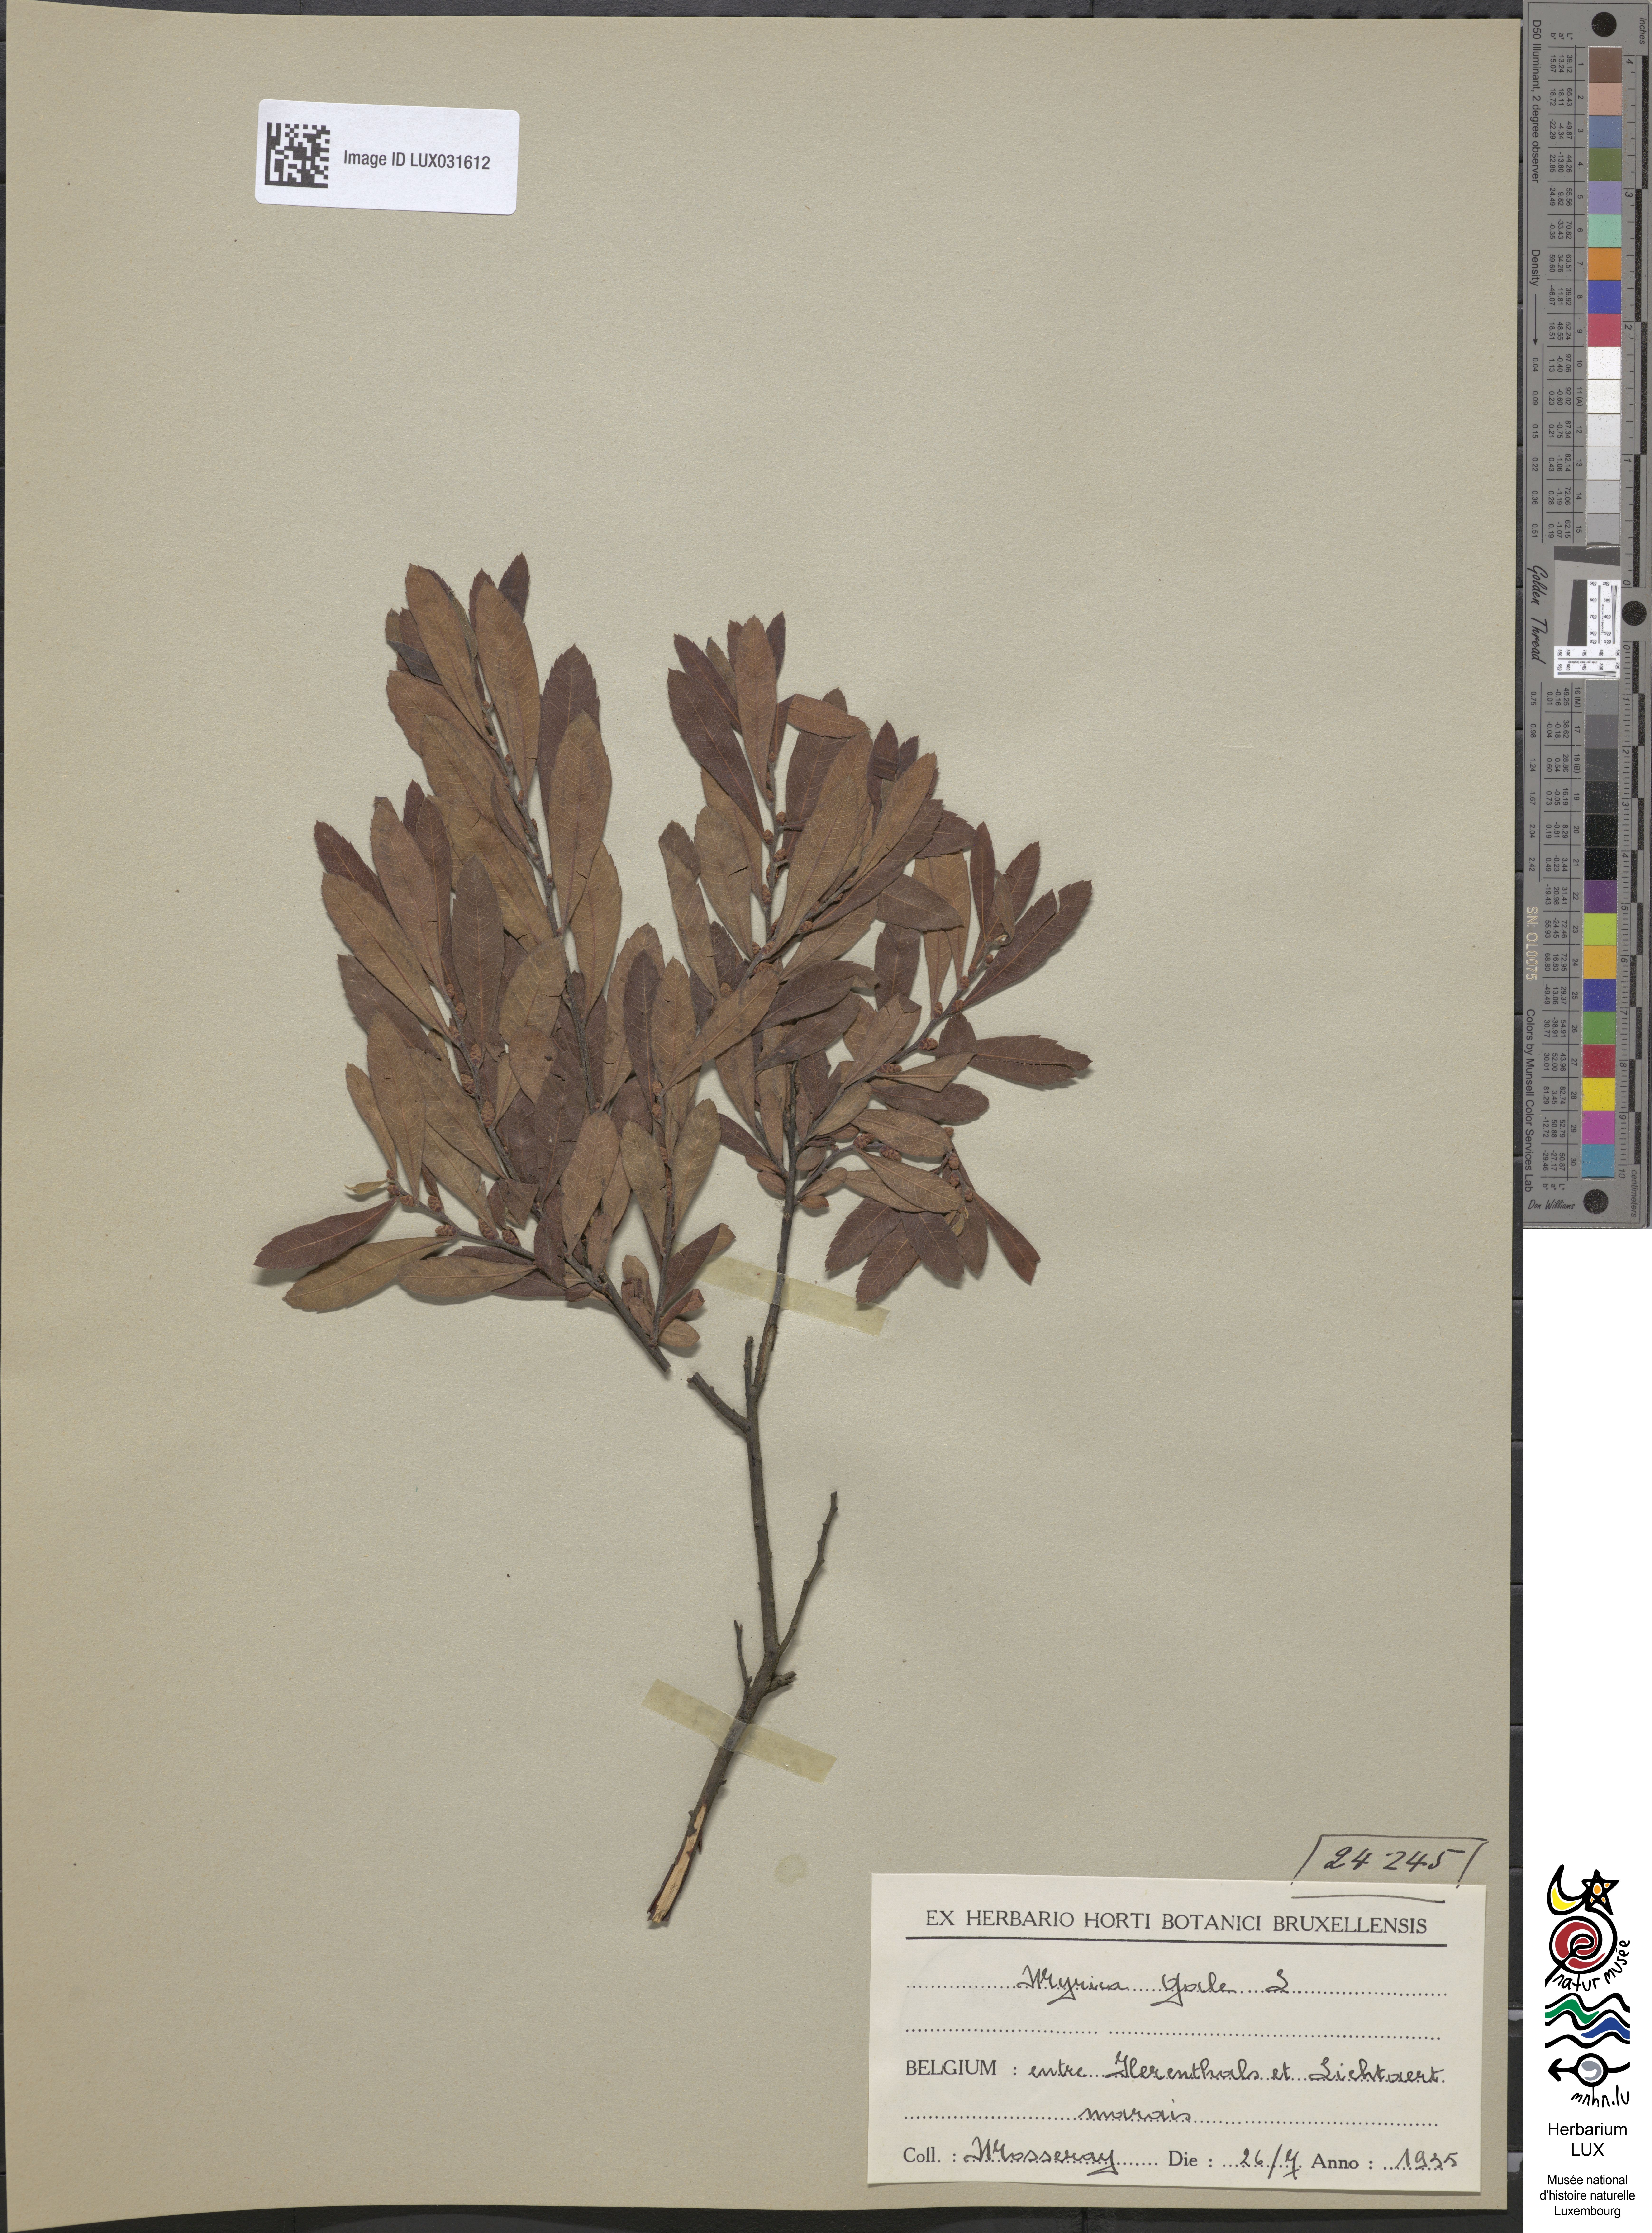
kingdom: Plantae
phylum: Tracheophyta
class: Magnoliopsida
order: Fagales
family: Myricaceae
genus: Myrica
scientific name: Myrica gale
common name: Sweet gale
